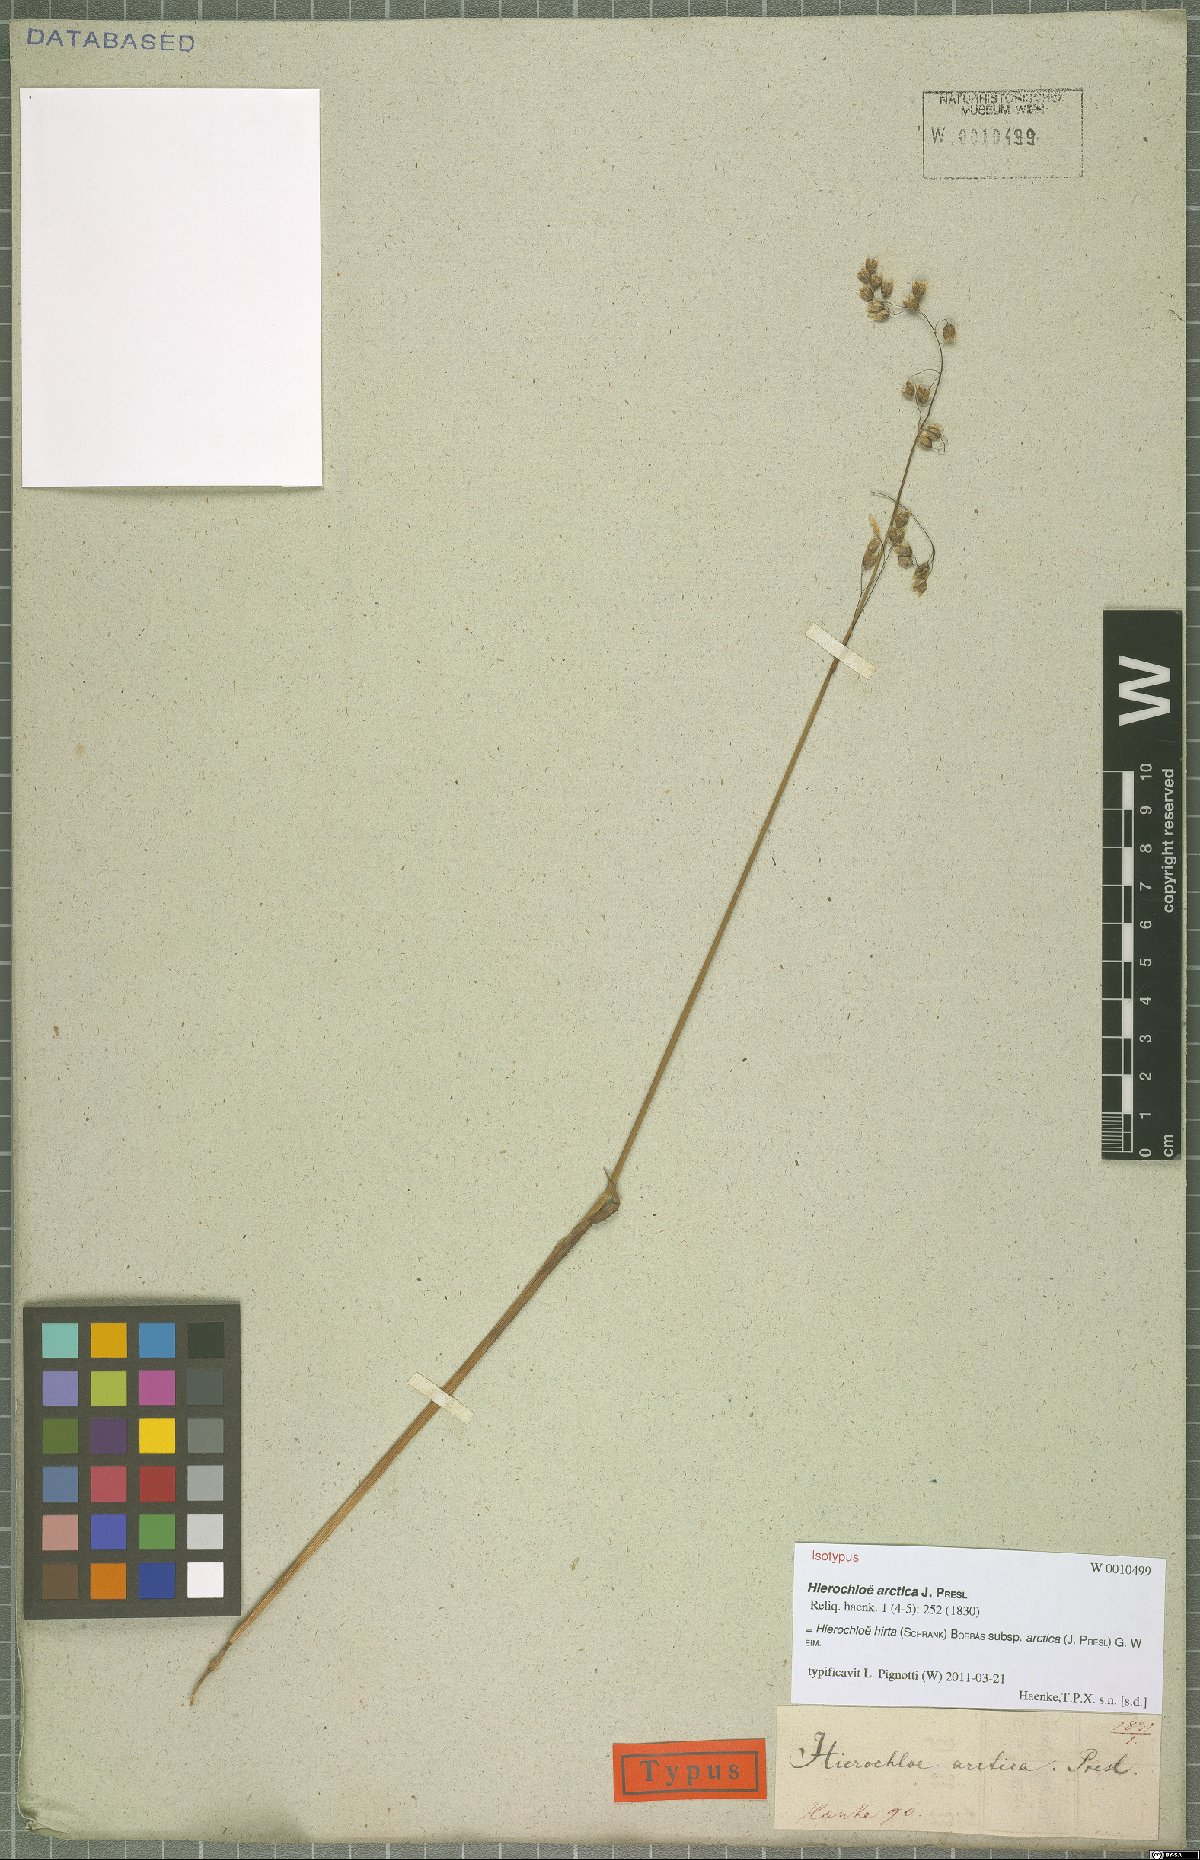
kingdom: Plantae
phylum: Tracheophyta
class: Liliopsida
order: Poales
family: Poaceae
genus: Anthoxanthum
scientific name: Anthoxanthum nitens
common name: Holy grass
